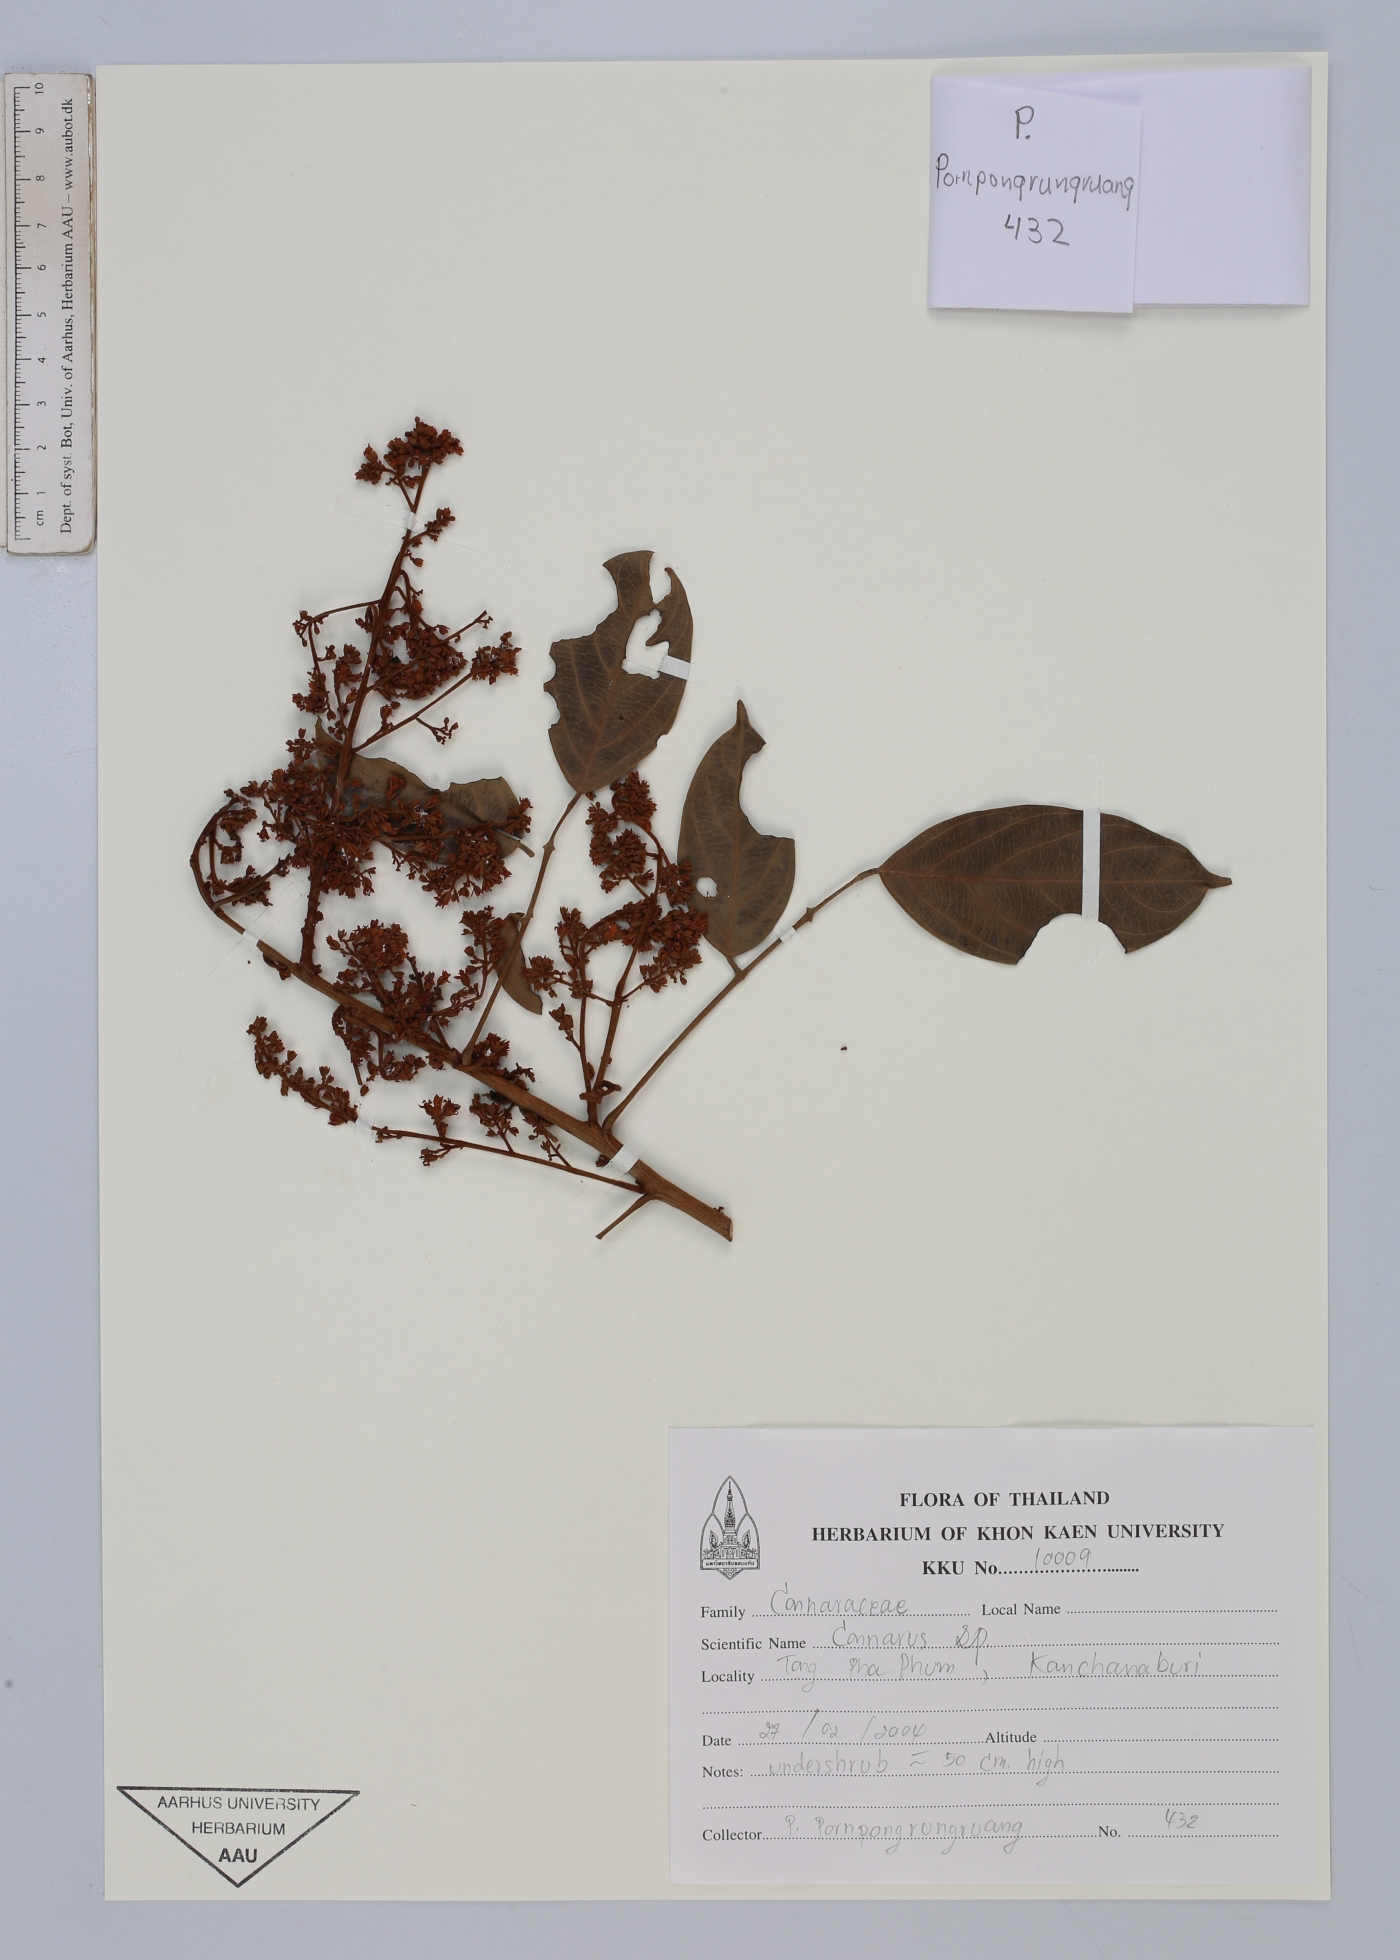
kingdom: Plantae
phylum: Tracheophyta
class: Magnoliopsida
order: Oxalidales
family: Connaraceae
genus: Connarus
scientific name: Connarus
